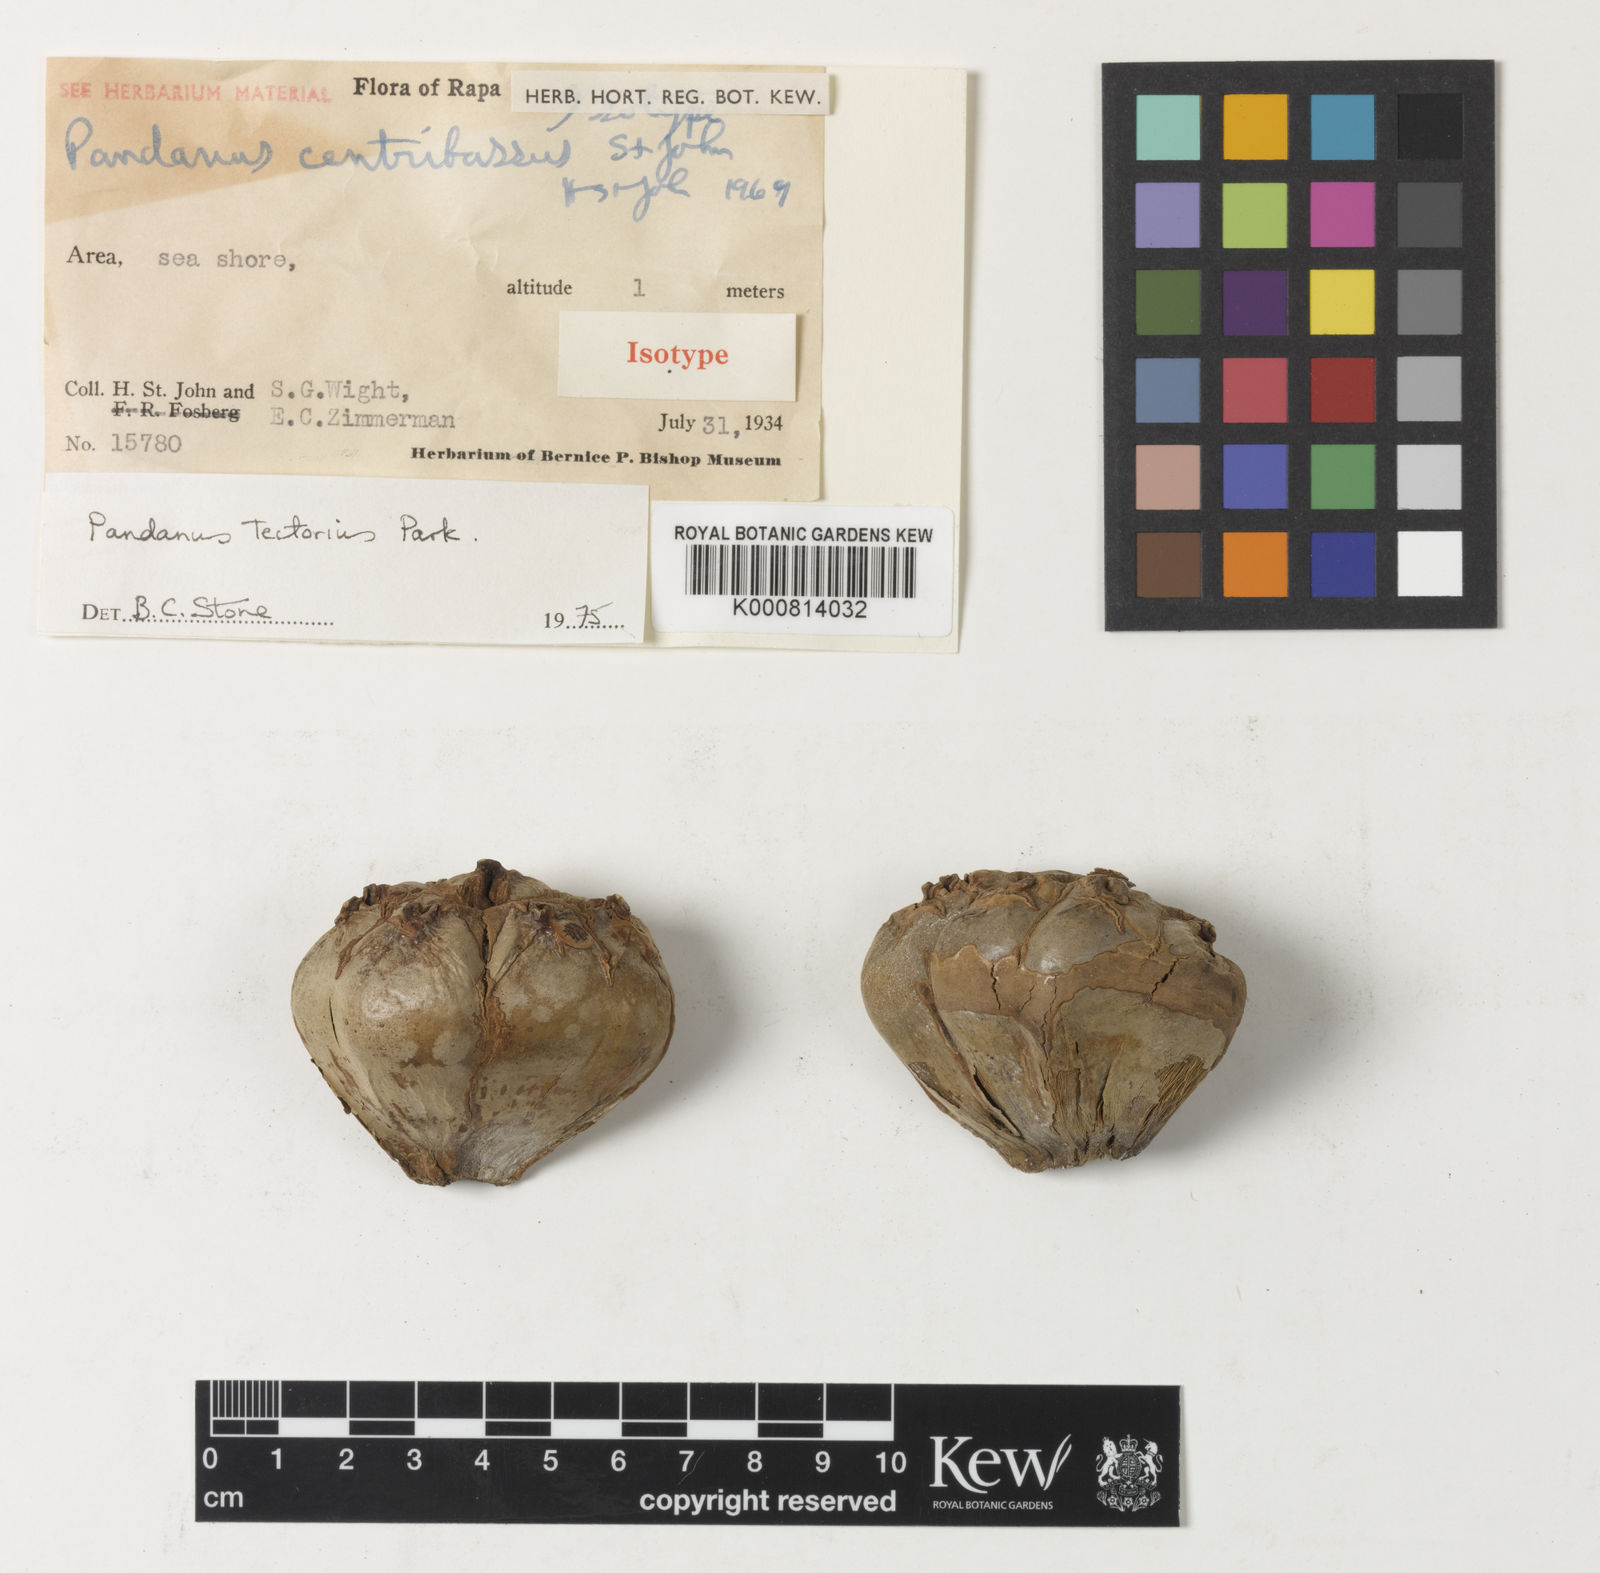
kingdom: Plantae
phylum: Tracheophyta
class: Liliopsida
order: Pandanales
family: Pandanaceae
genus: Pandanus
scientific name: Pandanus
